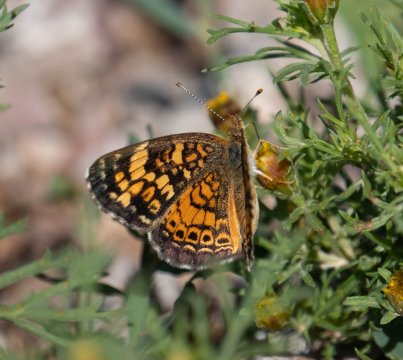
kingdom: Animalia
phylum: Arthropoda
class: Insecta
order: Lepidoptera
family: Nymphalidae
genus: Phyciodes
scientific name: Phyciodes tharos
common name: Pearl Crescent
